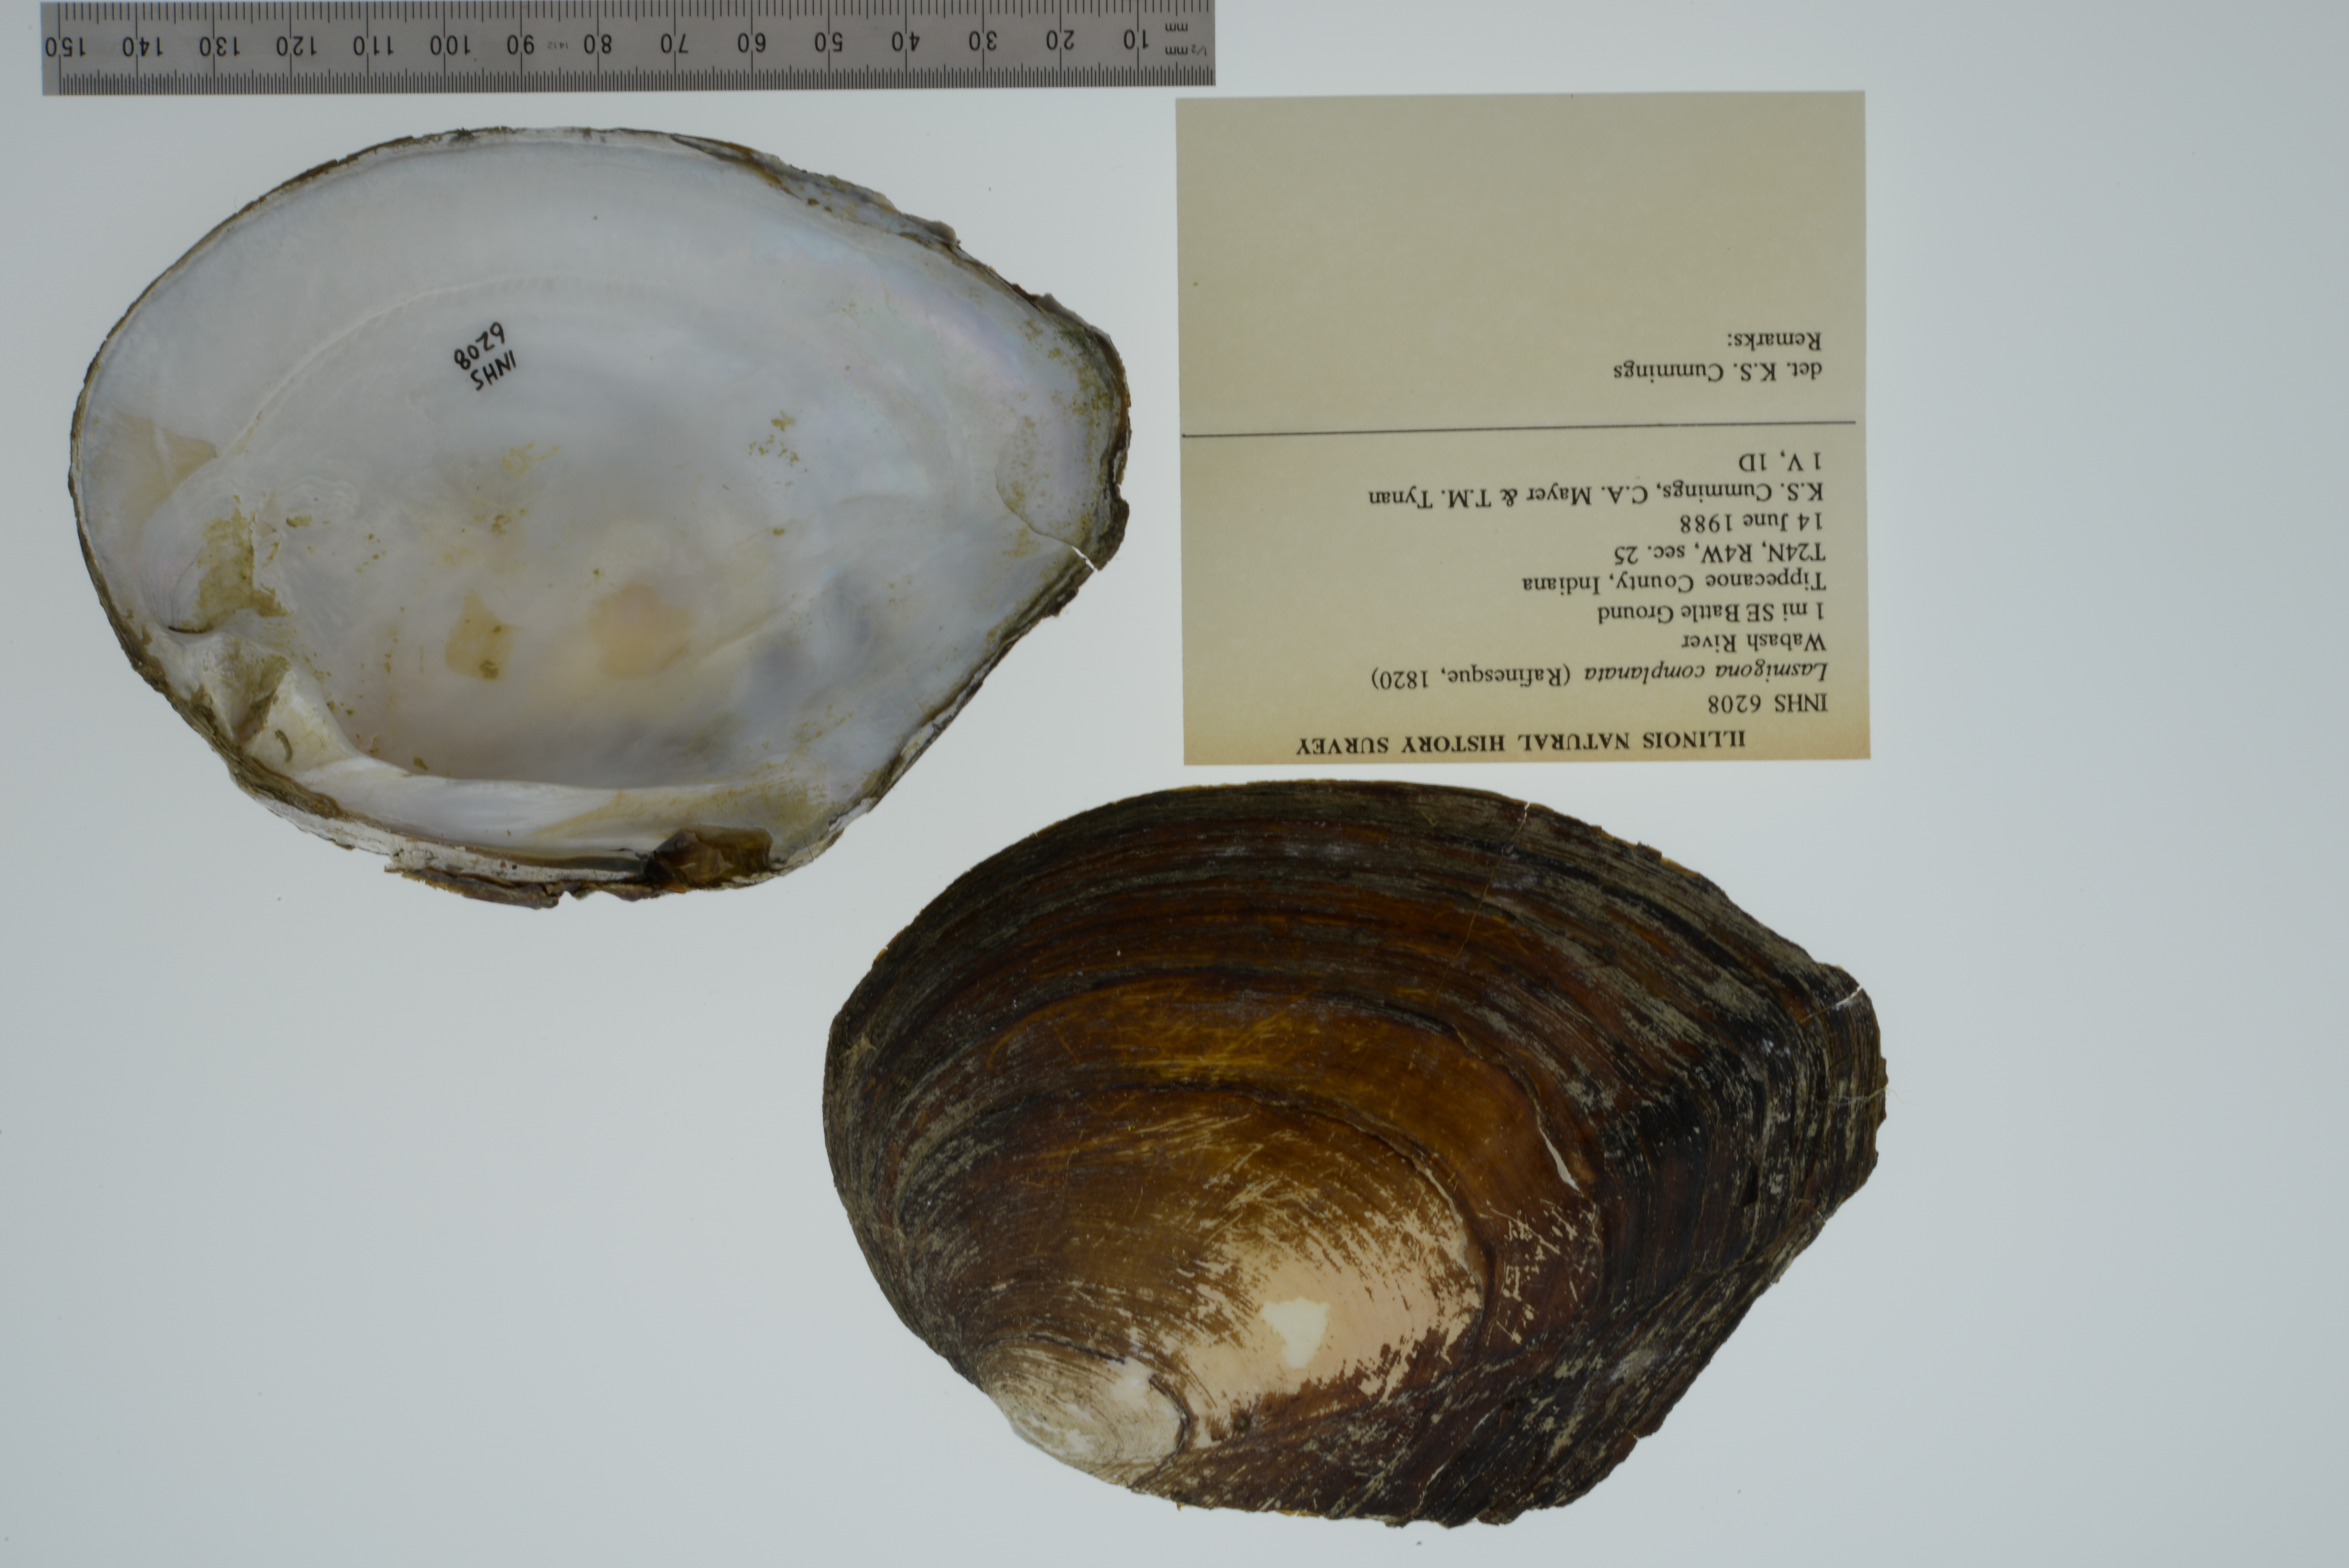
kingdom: Animalia
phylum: Mollusca
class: Bivalvia
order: Unionida
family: Unionidae
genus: Lasmigona
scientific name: Lasmigona complanata
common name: White heelsplitter
